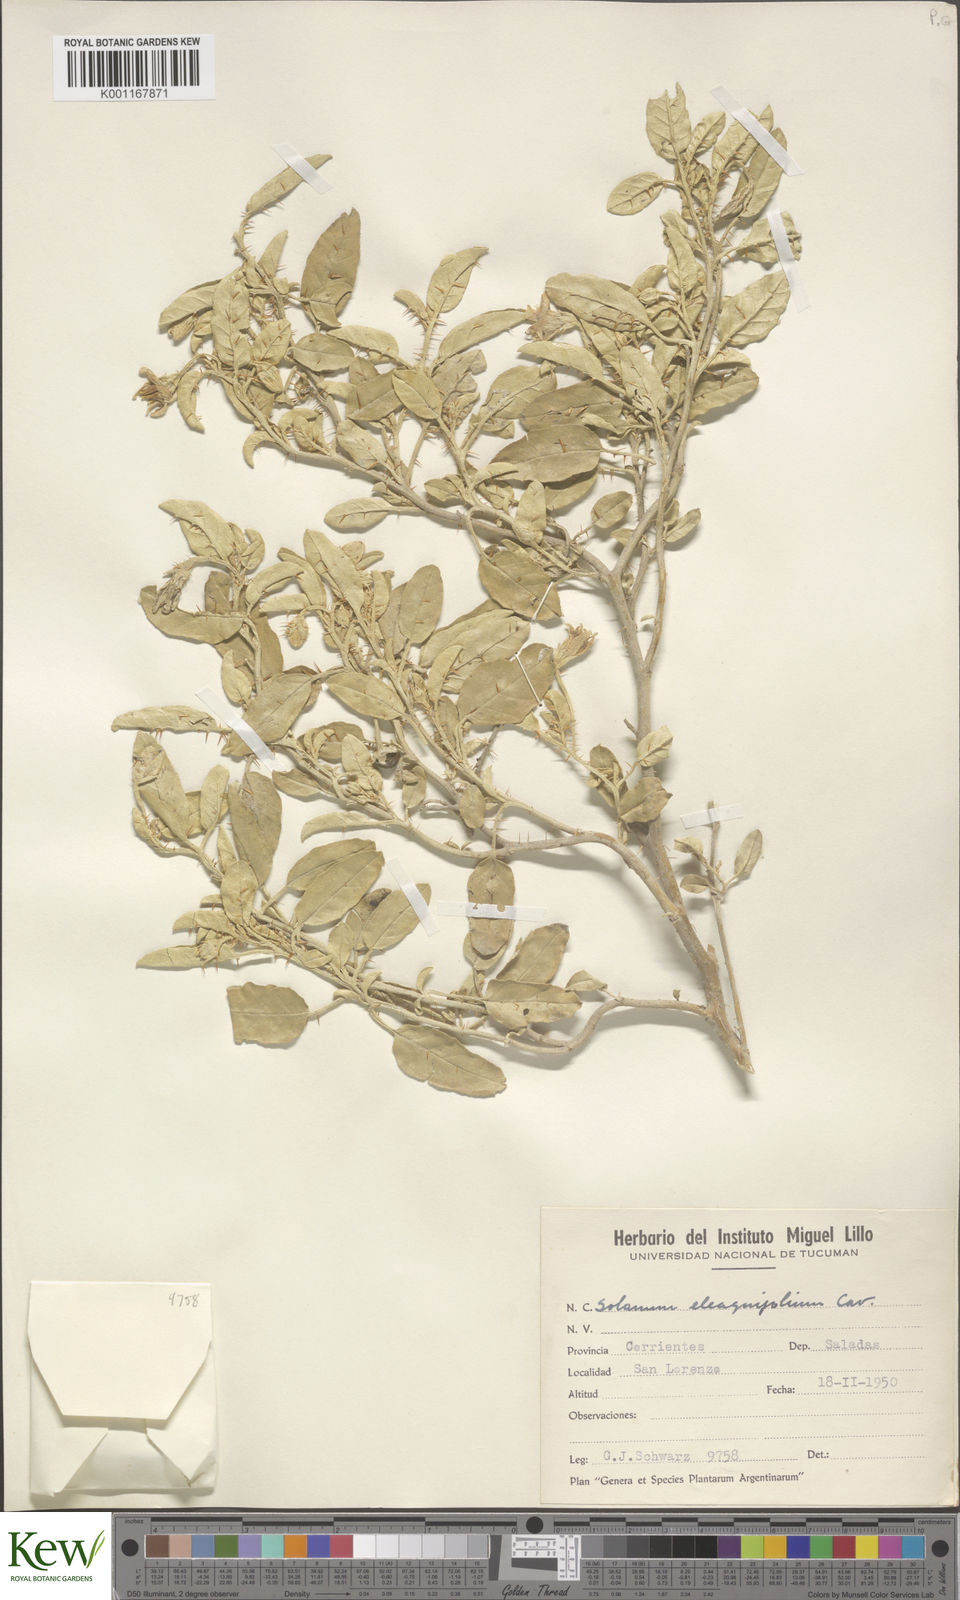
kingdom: Plantae
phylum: Tracheophyta
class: Magnoliopsida
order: Solanales
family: Solanaceae
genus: Solanum
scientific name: Solanum elaeagnifolium
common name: Silverleaf nightshade
